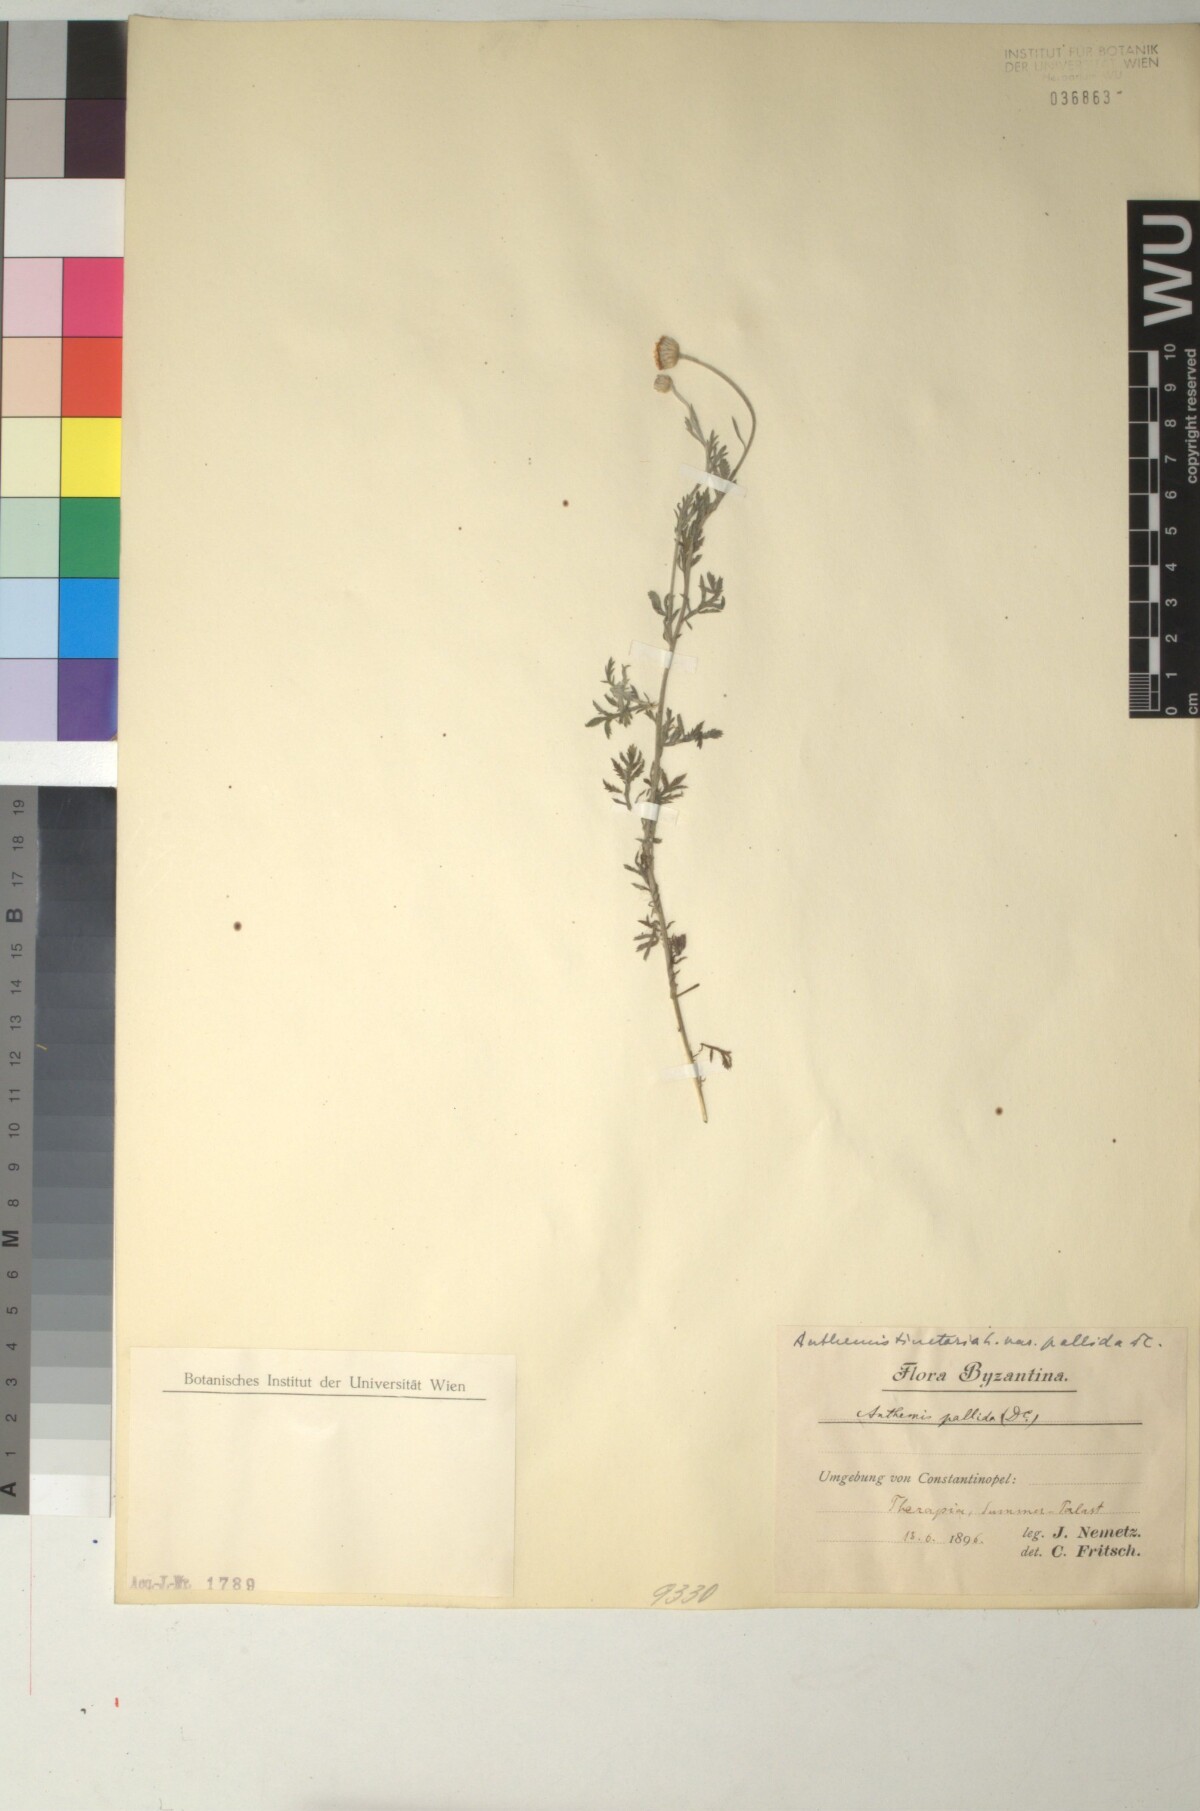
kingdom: Plantae
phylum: Tracheophyta
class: Magnoliopsida
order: Asterales
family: Asteraceae
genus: Cota
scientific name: Cota tinctoria
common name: Golden chamomile
